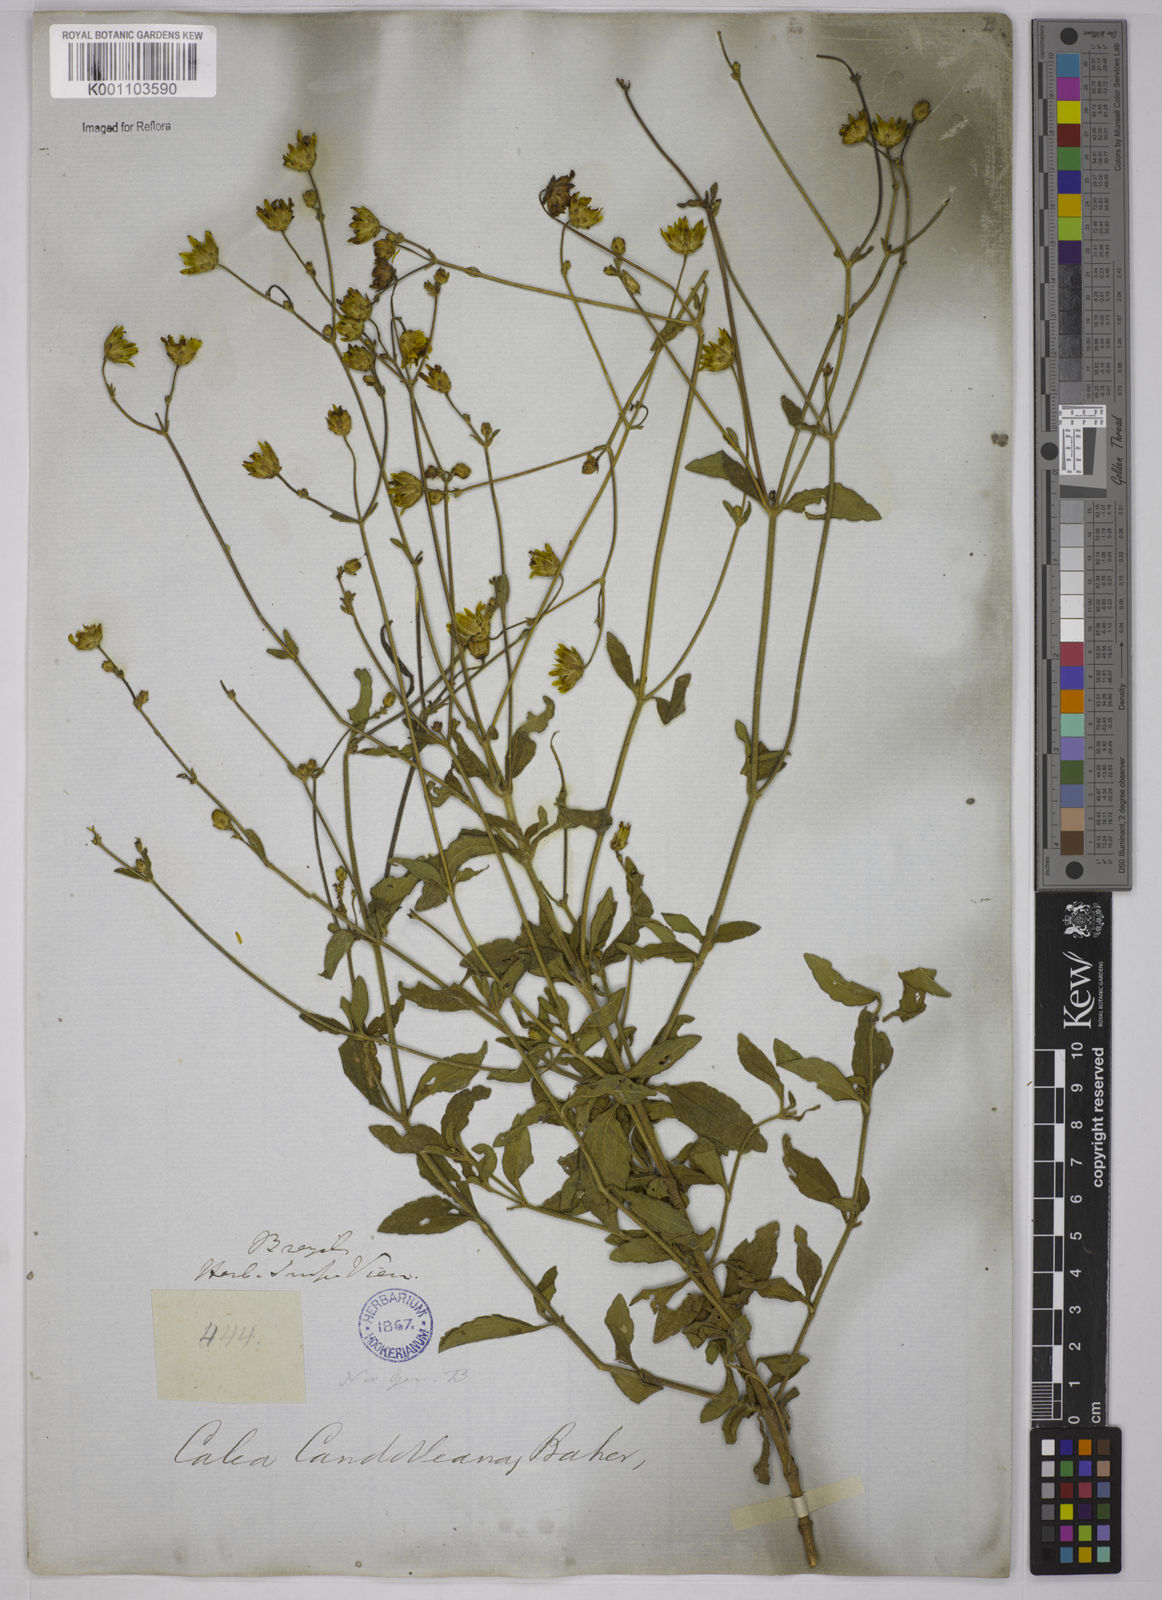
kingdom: Plantae
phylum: Tracheophyta
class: Magnoliopsida
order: Asterales
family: Asteraceae
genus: Calea
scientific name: Calea candolleana
